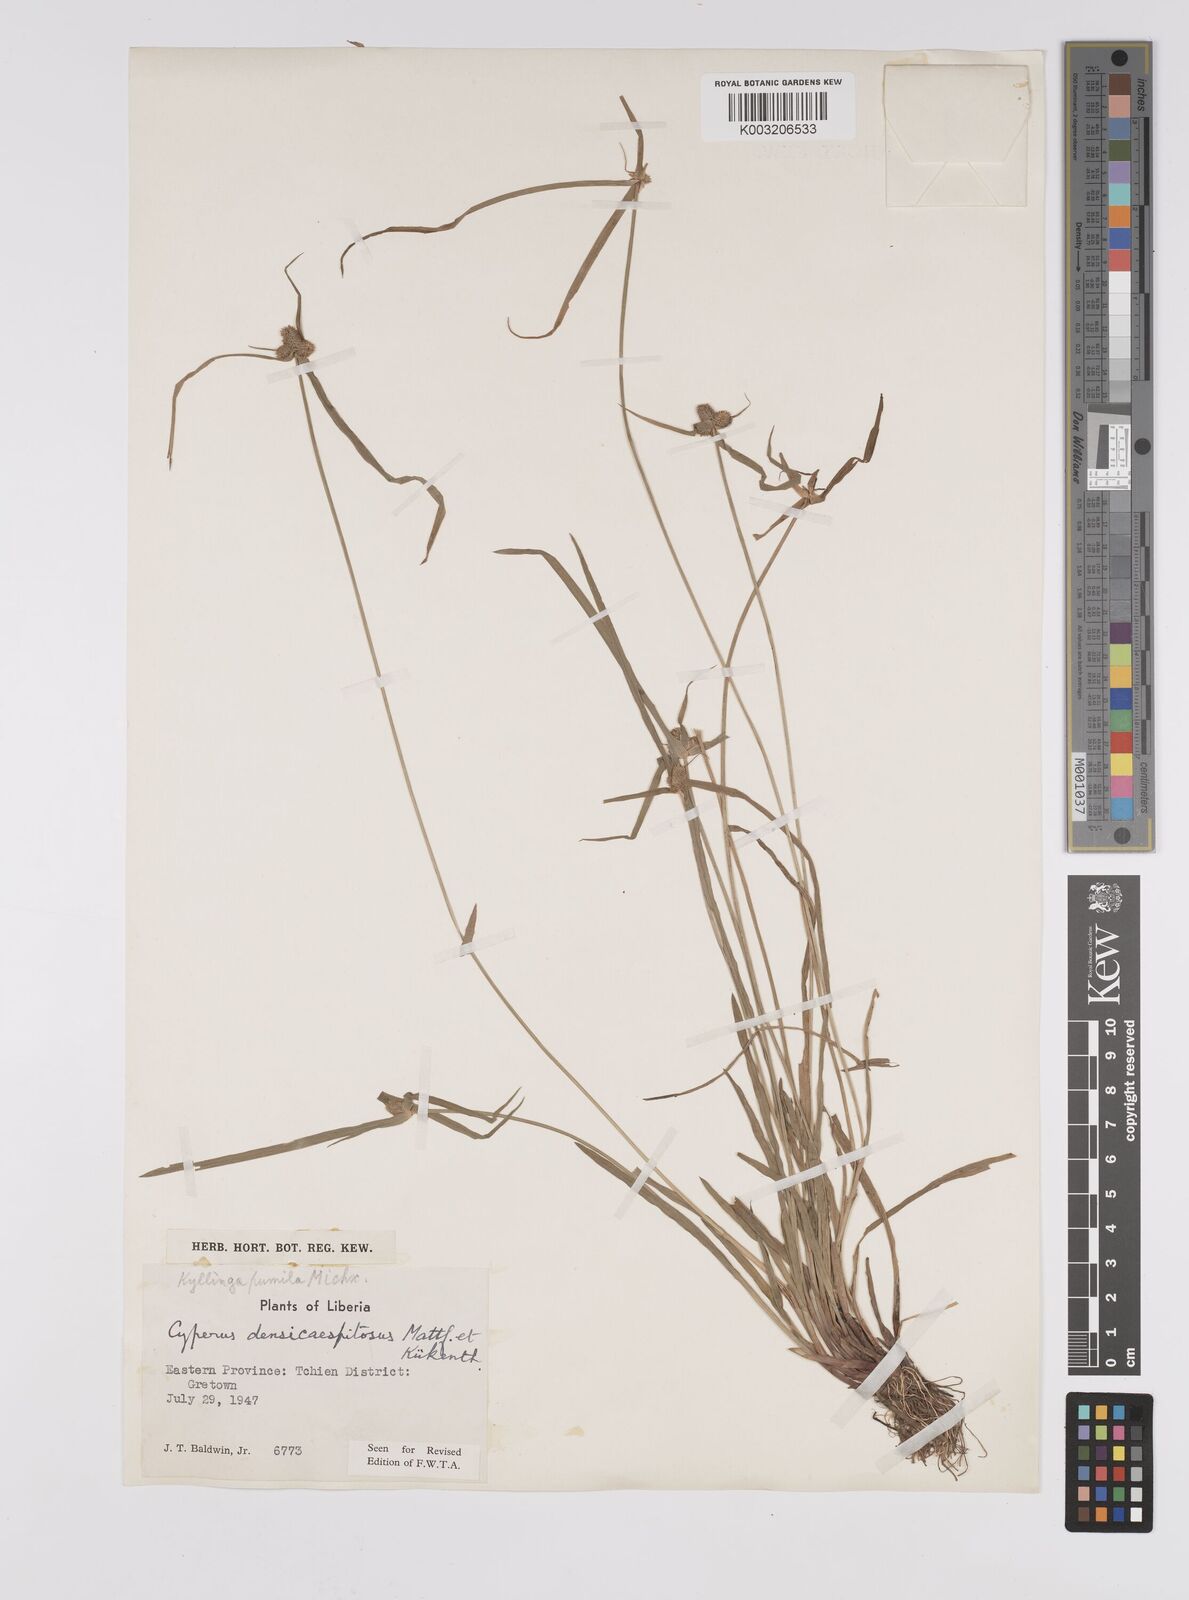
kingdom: Plantae
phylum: Tracheophyta
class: Liliopsida
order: Poales
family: Cyperaceae
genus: Cyperus
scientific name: Cyperus
